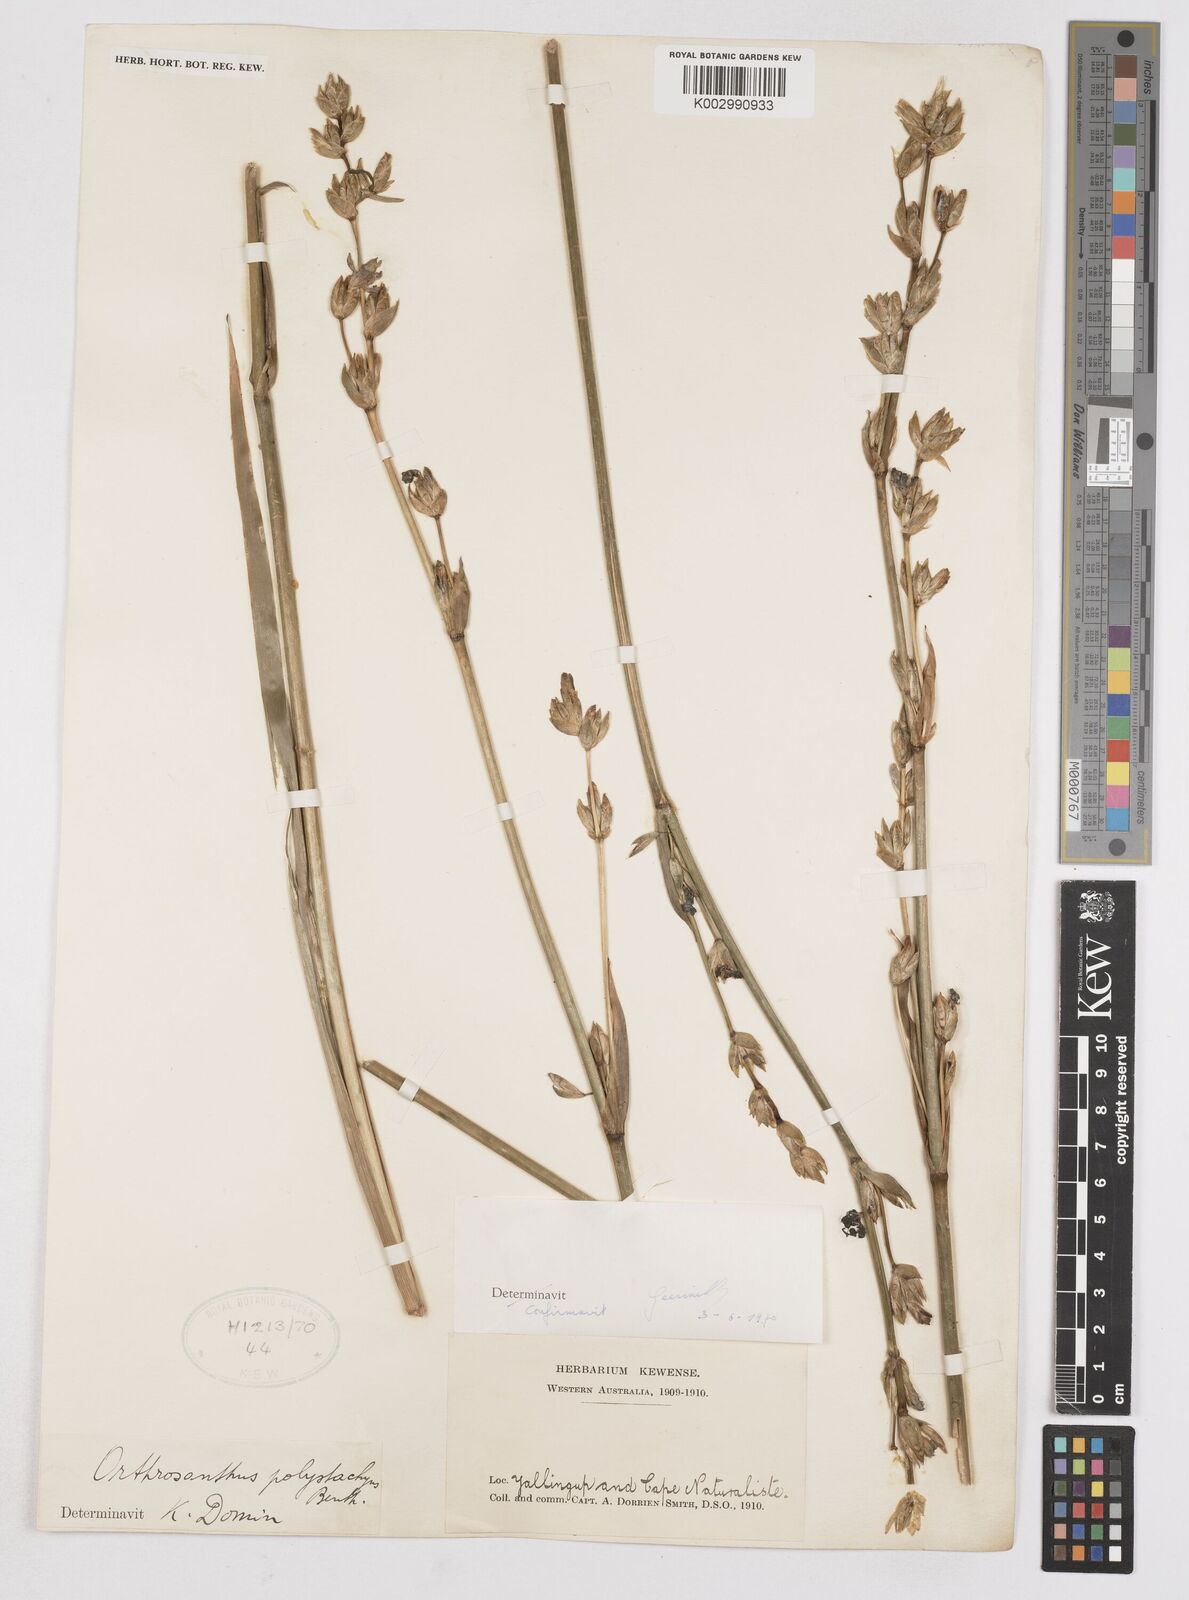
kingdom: Plantae
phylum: Tracheophyta
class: Liliopsida
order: Asparagales
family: Iridaceae
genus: Orthrosanthus
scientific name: Orthrosanthus polystachyus
